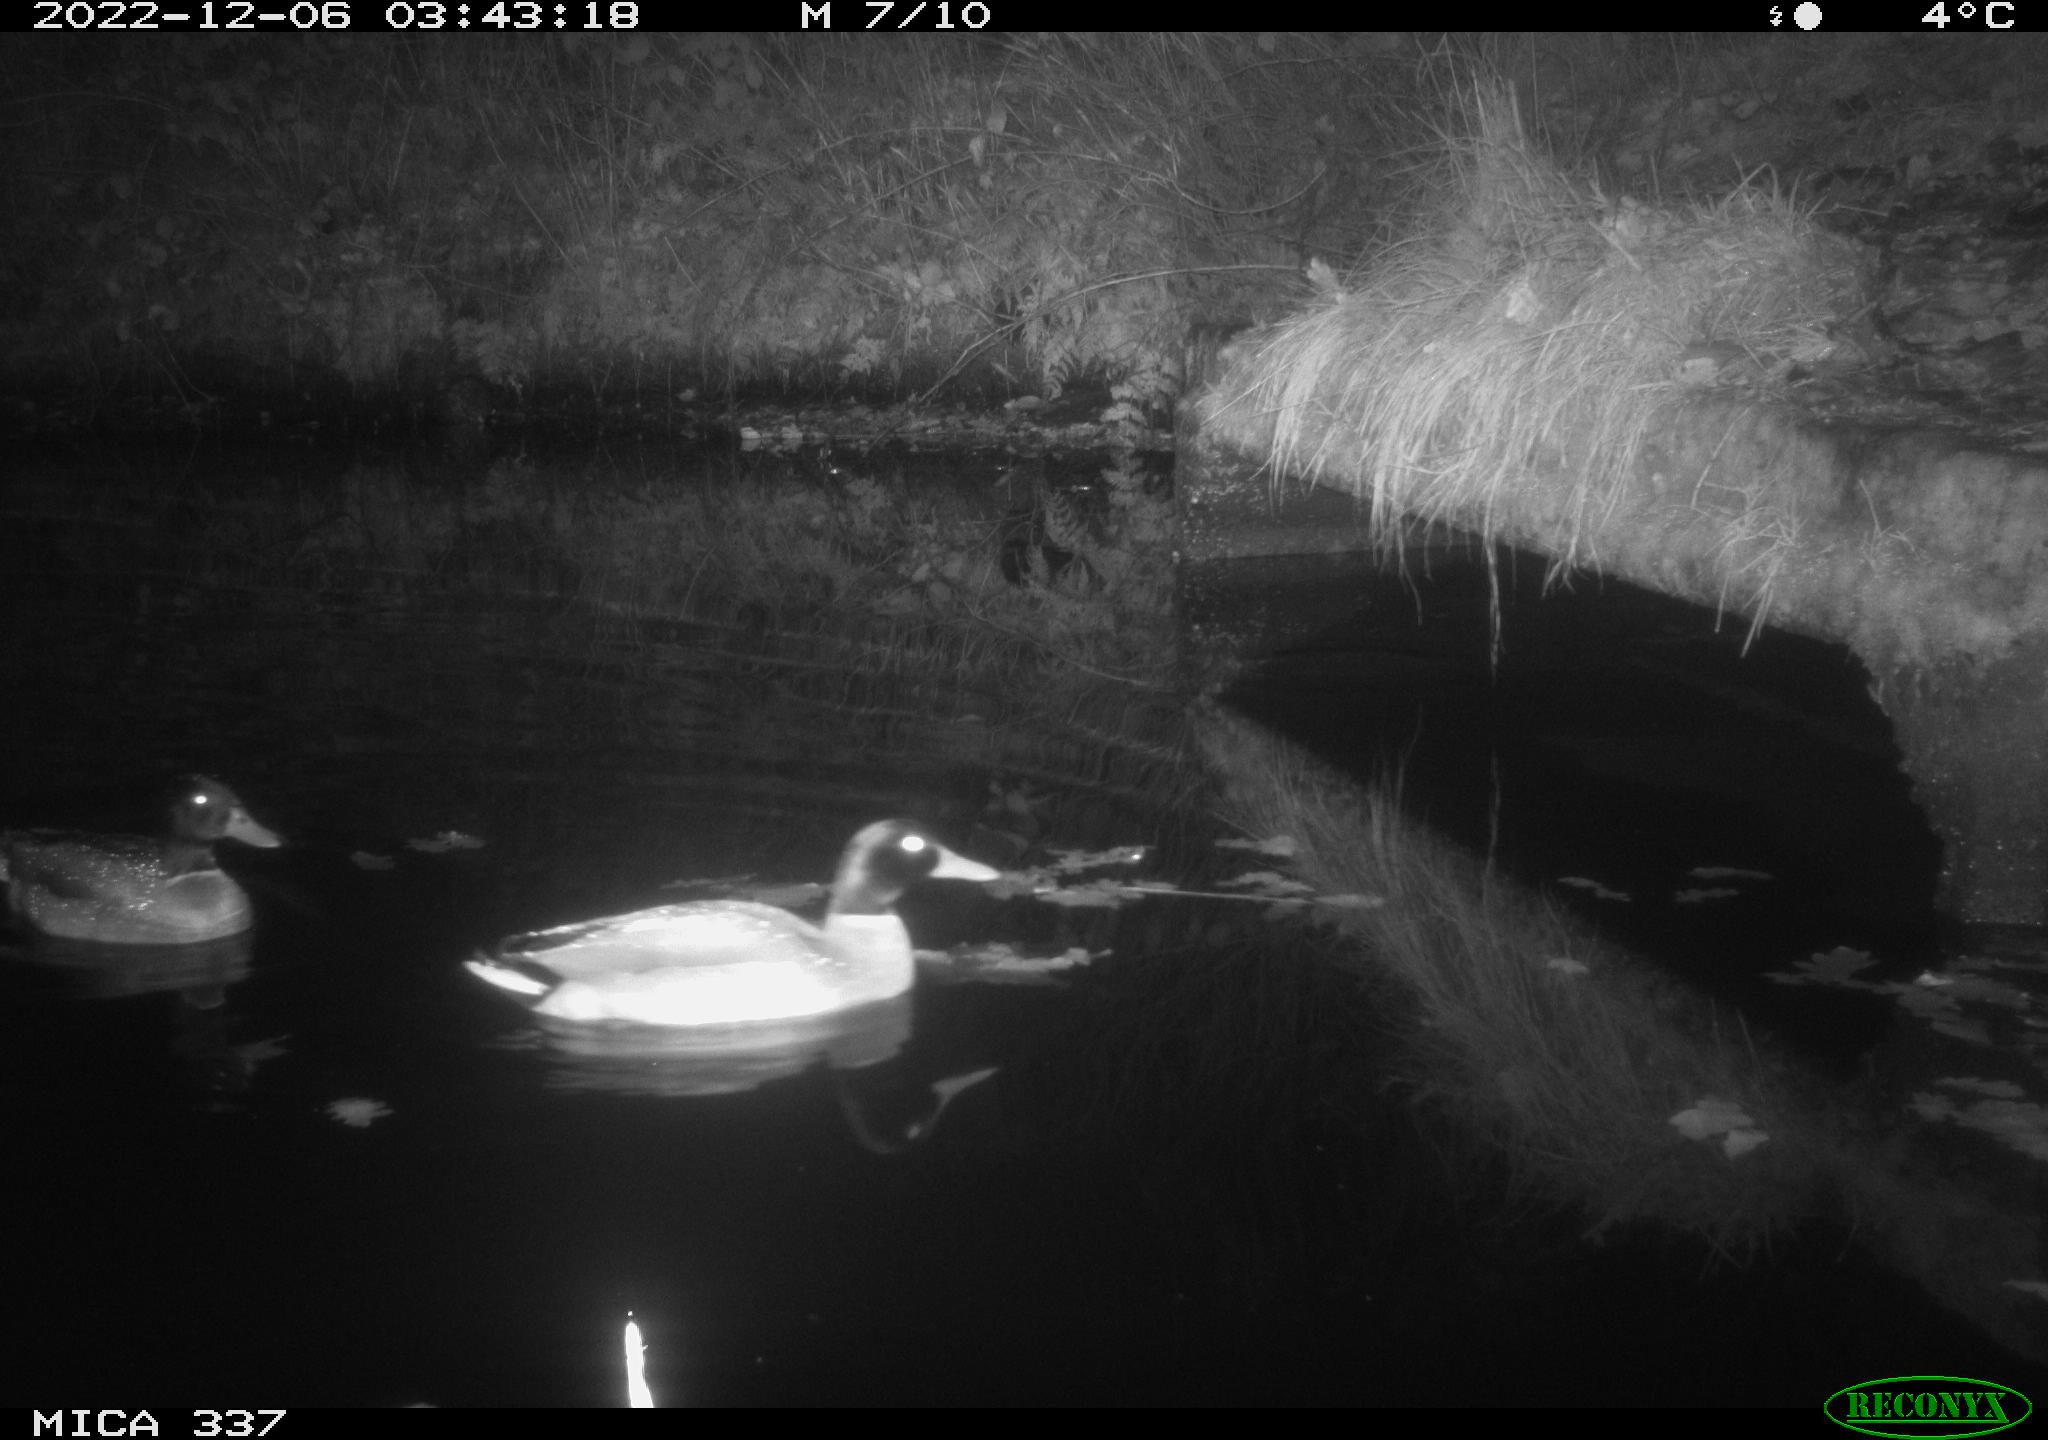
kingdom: Animalia
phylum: Chordata
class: Aves
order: Anseriformes
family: Anatidae
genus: Anas
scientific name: Anas
